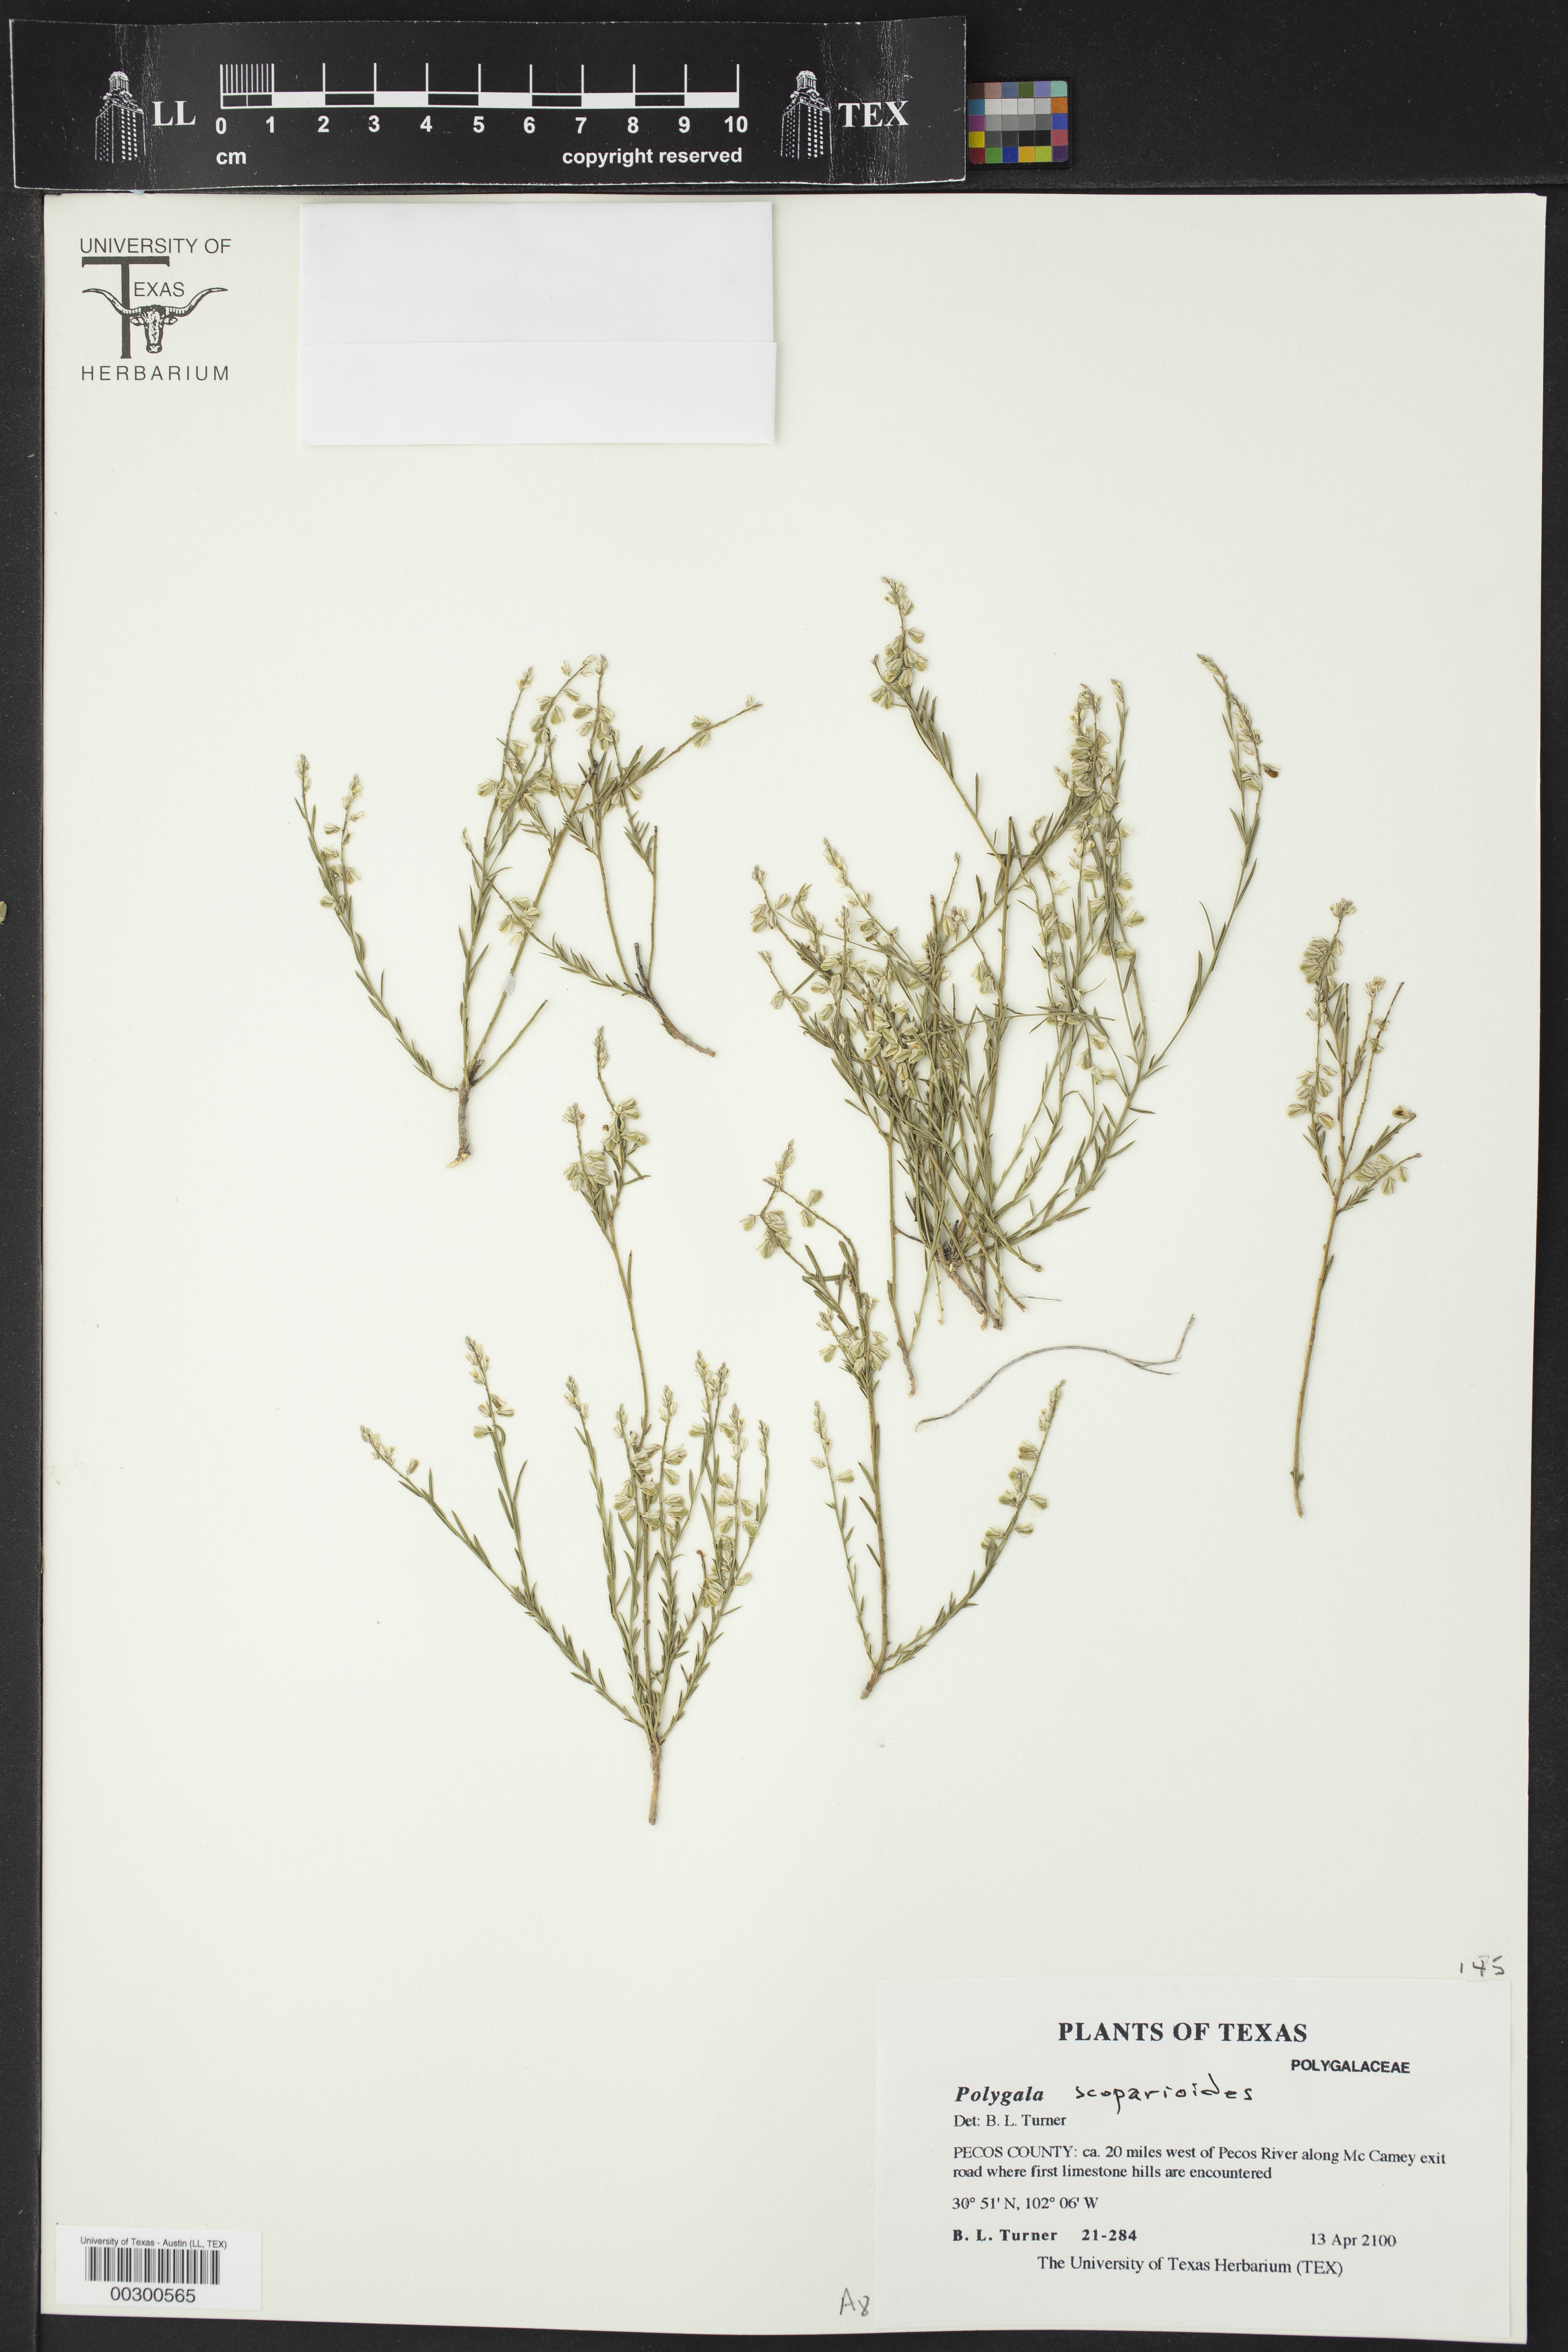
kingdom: Plantae
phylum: Tracheophyta
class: Magnoliopsida
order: Fabales
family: Polygalaceae
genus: Polygala
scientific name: Polygala scoparioides
